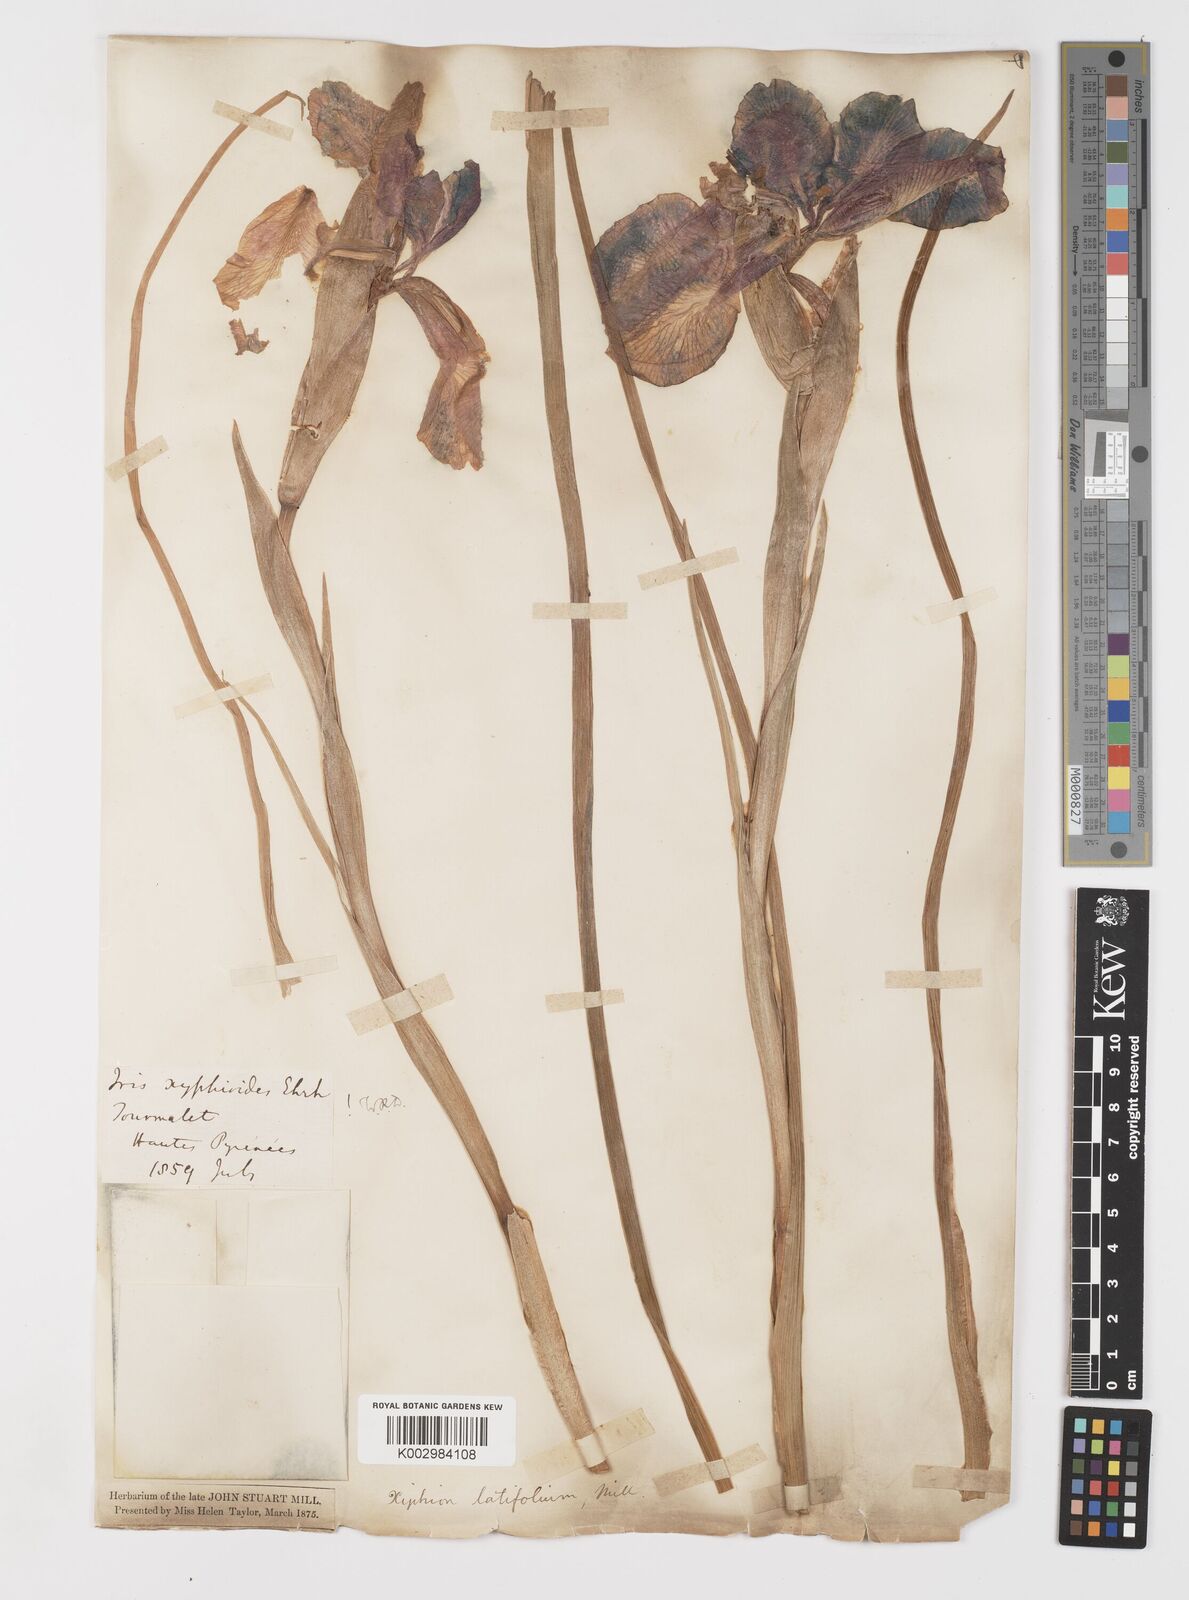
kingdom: Plantae
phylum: Tracheophyta
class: Liliopsida
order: Asparagales
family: Iridaceae
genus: Iris
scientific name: Iris jacquinii
